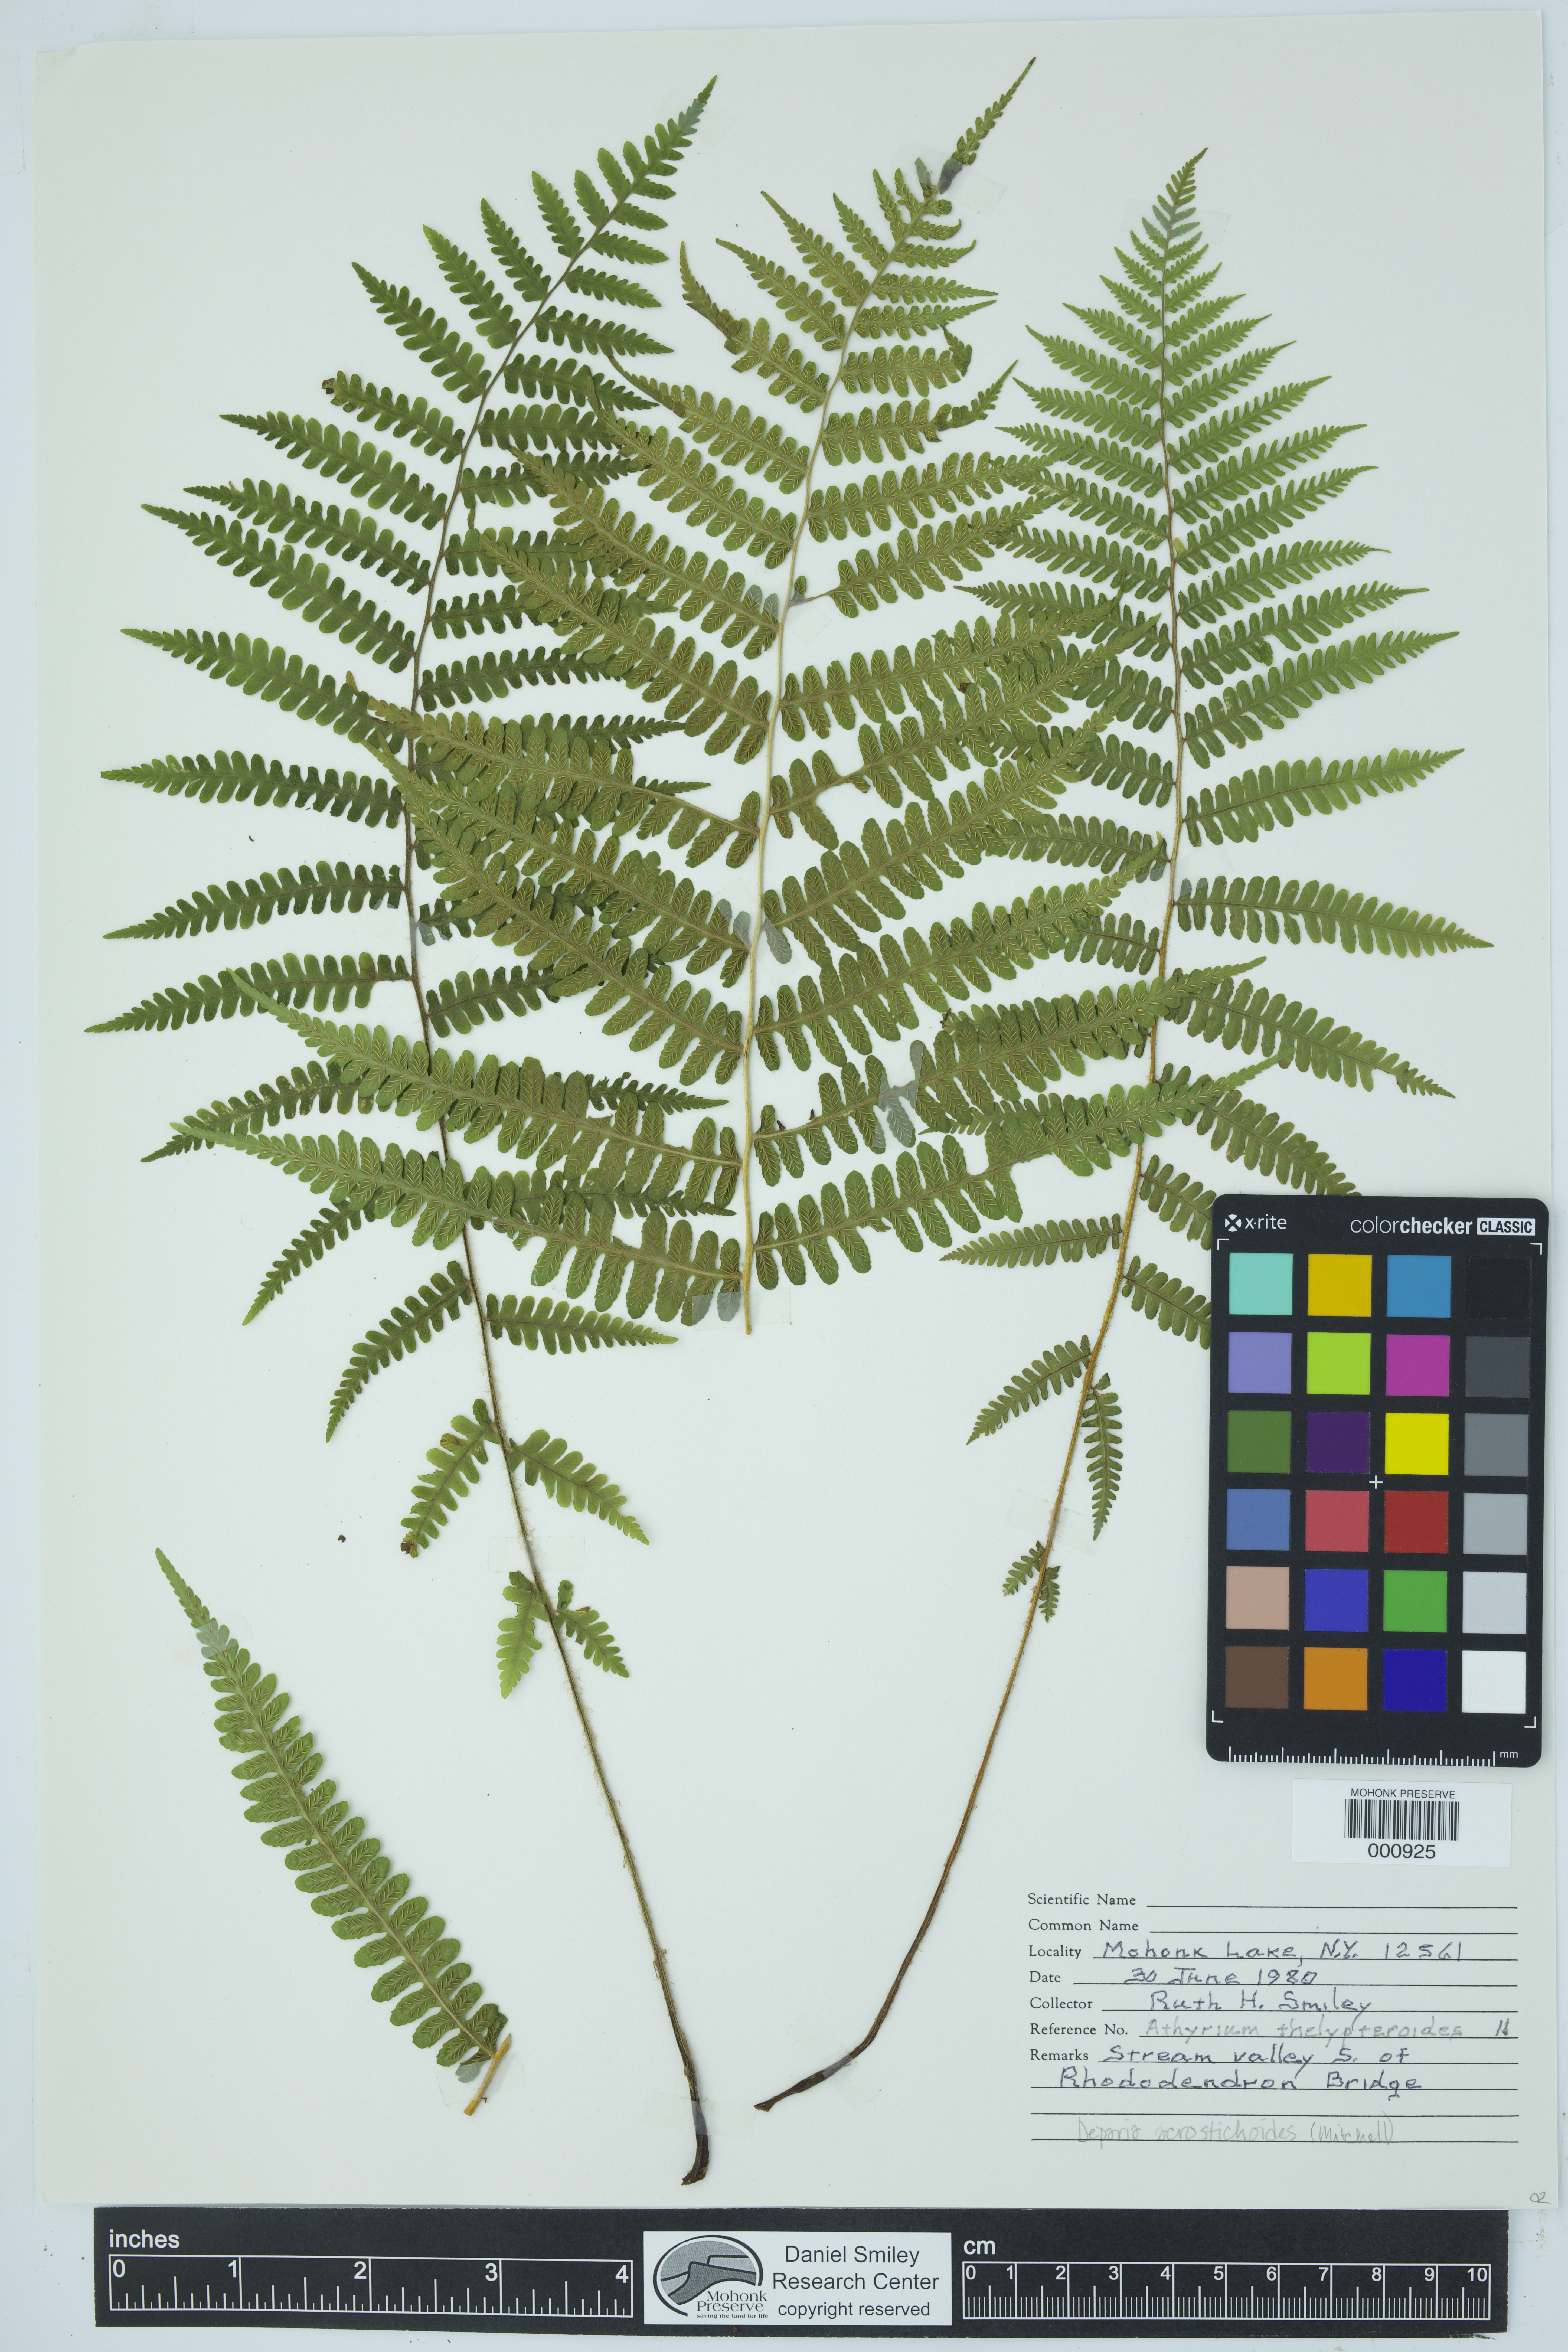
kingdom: Plantae
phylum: Tracheophyta
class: Polypodiopsida
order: Polypodiales
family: Athyriaceae
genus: Deparia
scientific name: Deparia acrostichoides
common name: Silver false spleenwort
